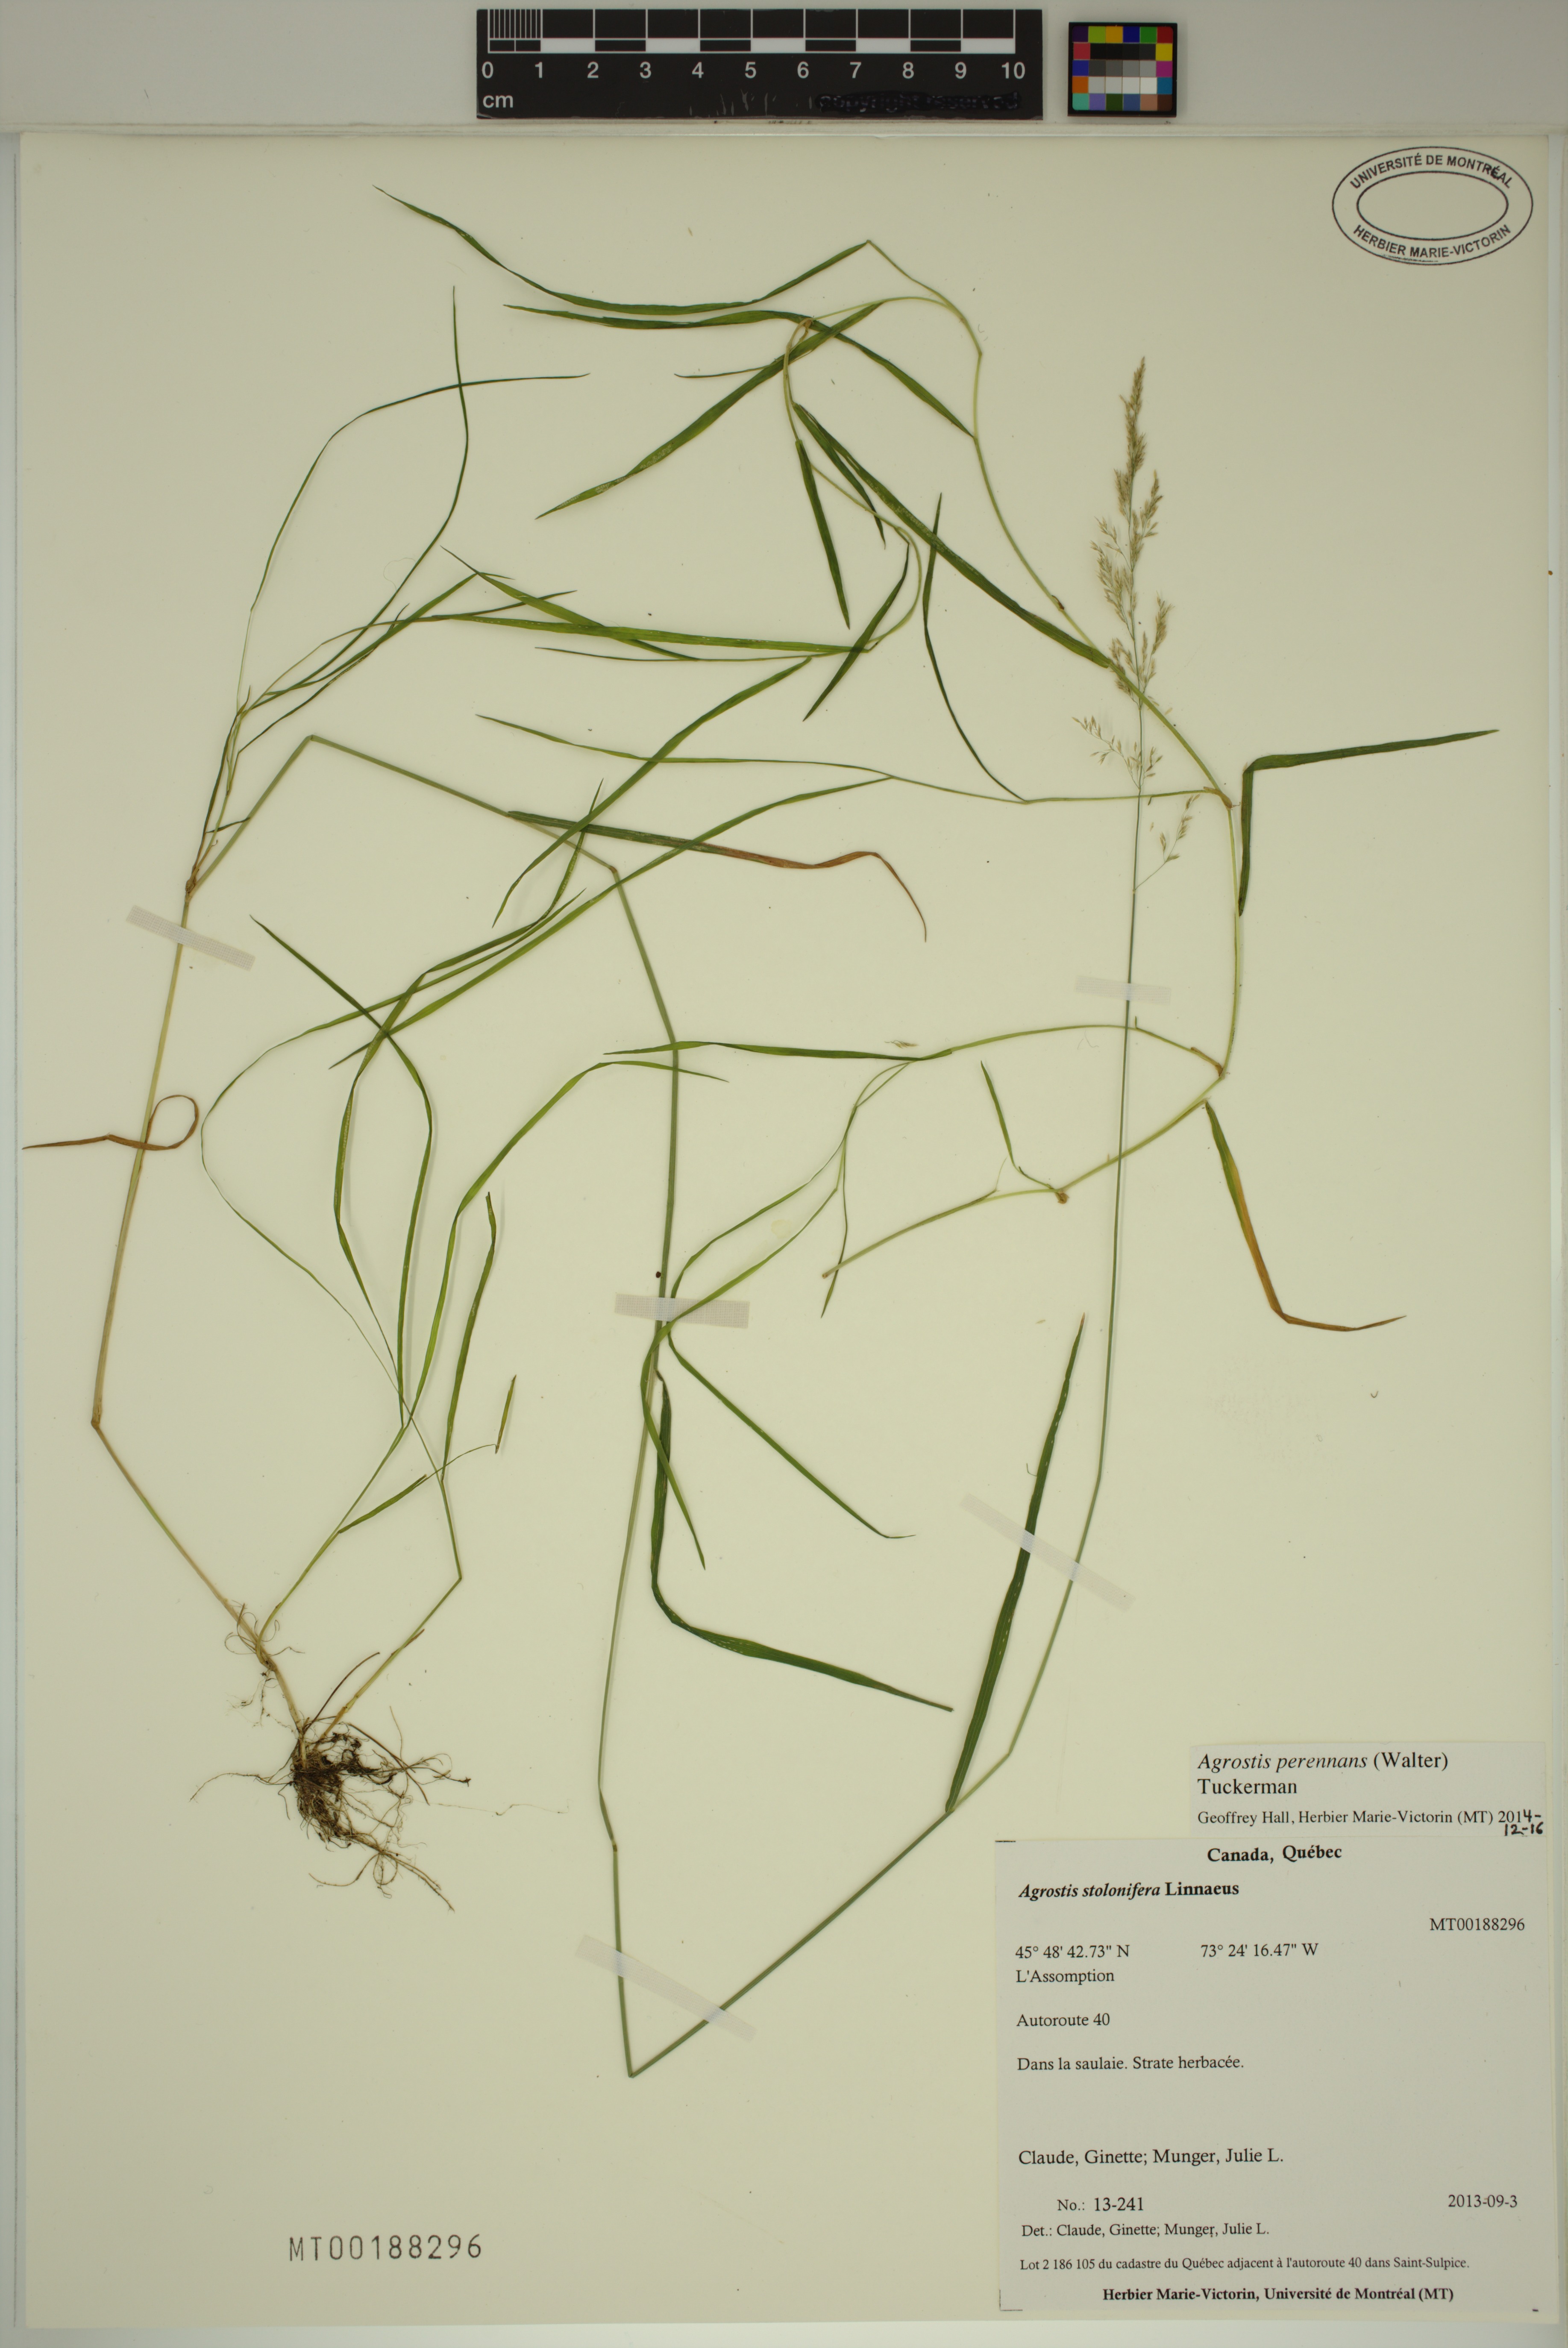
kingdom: Plantae
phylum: Tracheophyta
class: Liliopsida
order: Poales
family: Poaceae
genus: Agrostis
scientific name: Agrostis perennans
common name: Autumn bent
